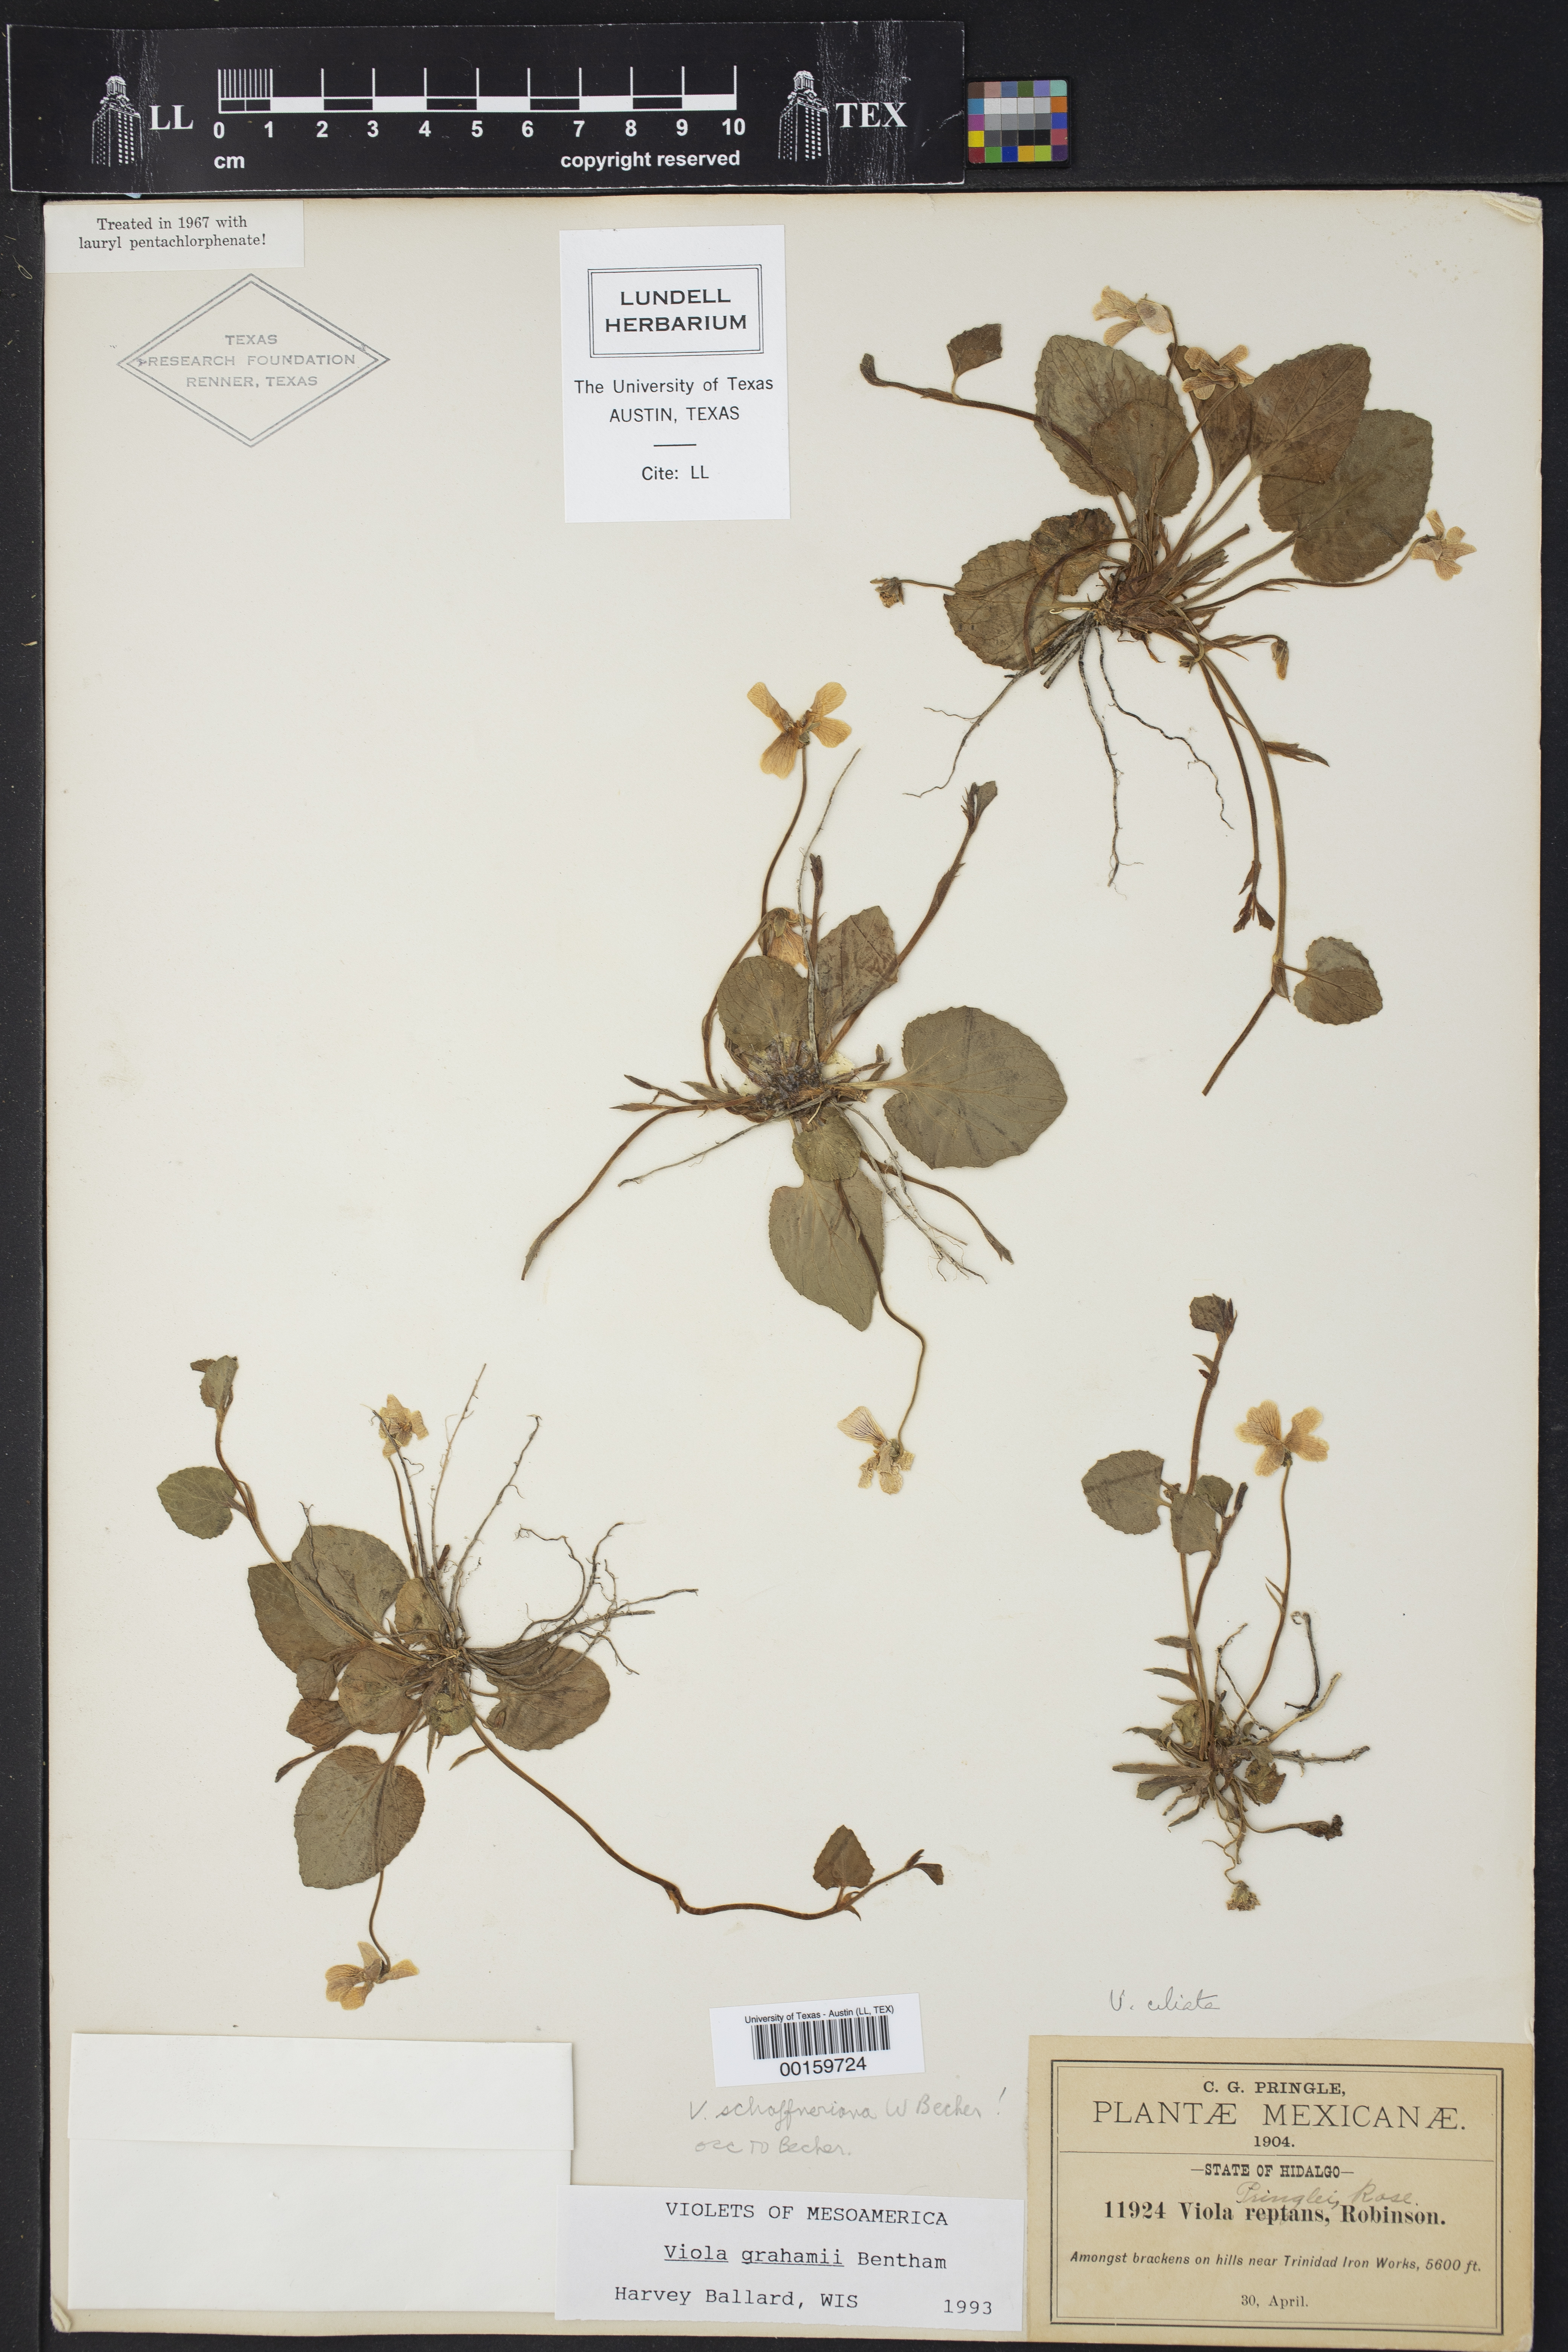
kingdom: Plantae
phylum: Tracheophyta
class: Magnoliopsida
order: Malpighiales
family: Violaceae
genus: Viola
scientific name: Viola grahamii
